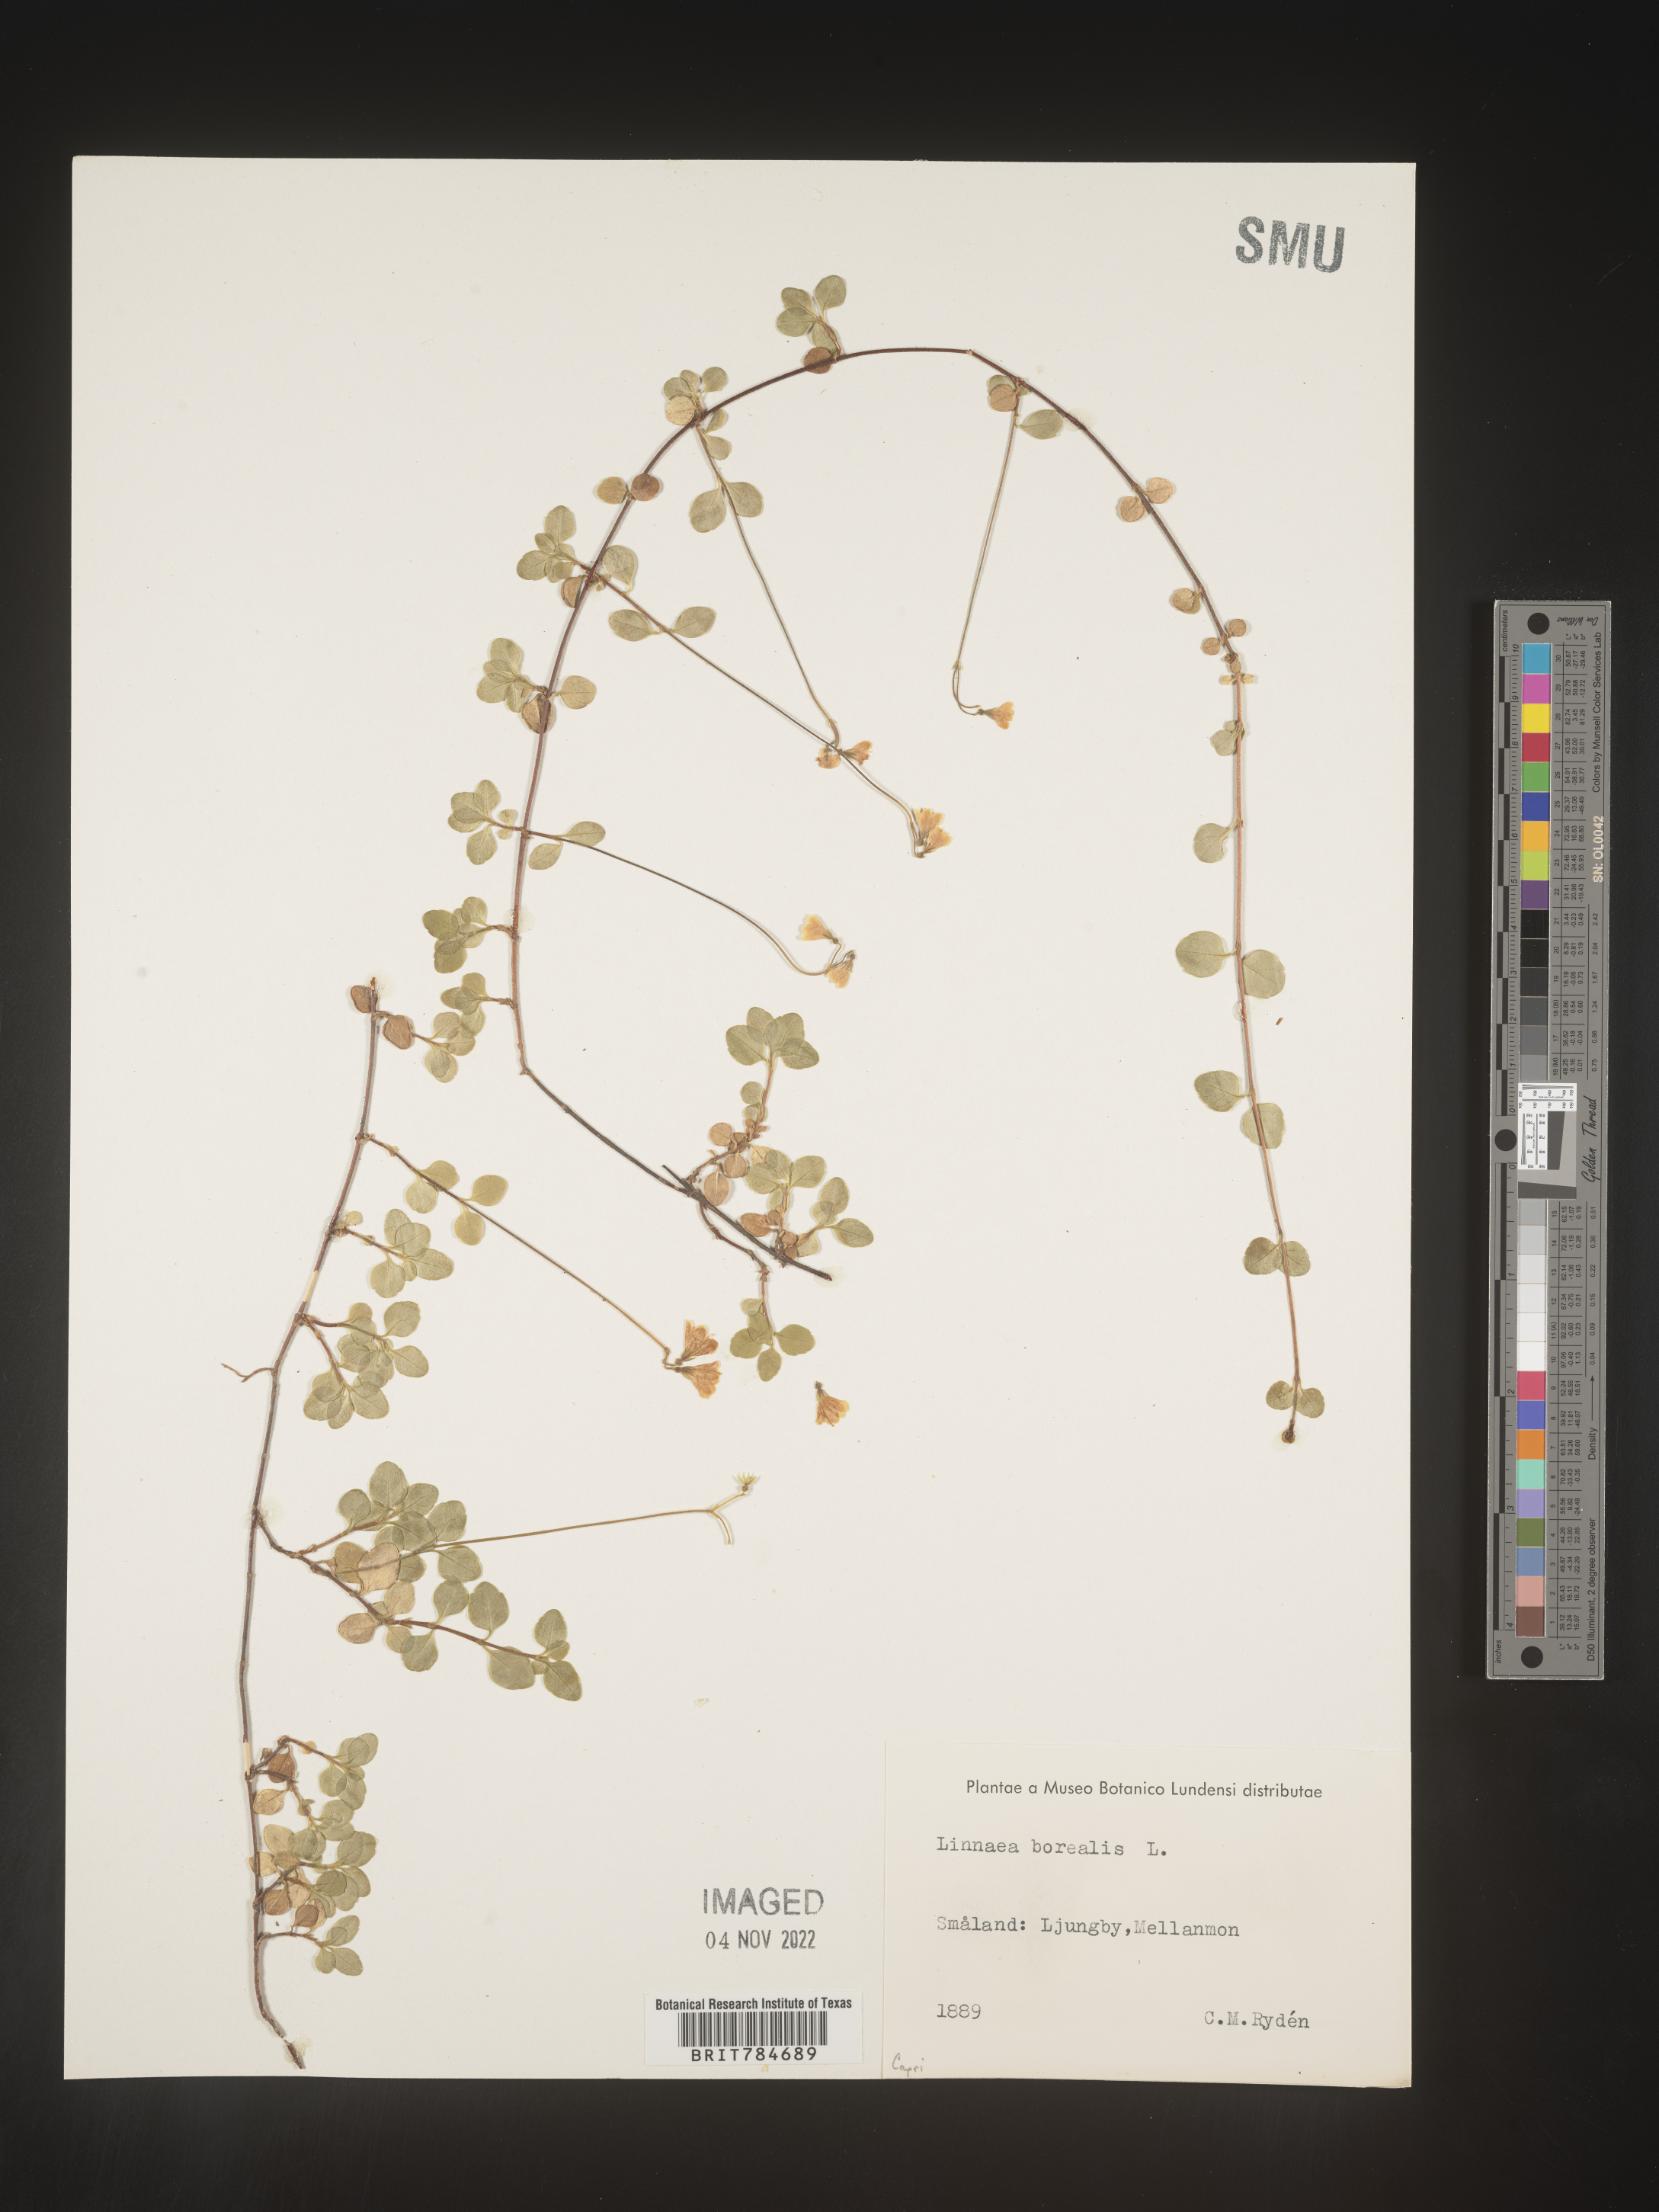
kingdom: Plantae
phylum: Tracheophyta
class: Magnoliopsida
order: Dipsacales
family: Caprifoliaceae
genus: Linnaea
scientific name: Linnaea
